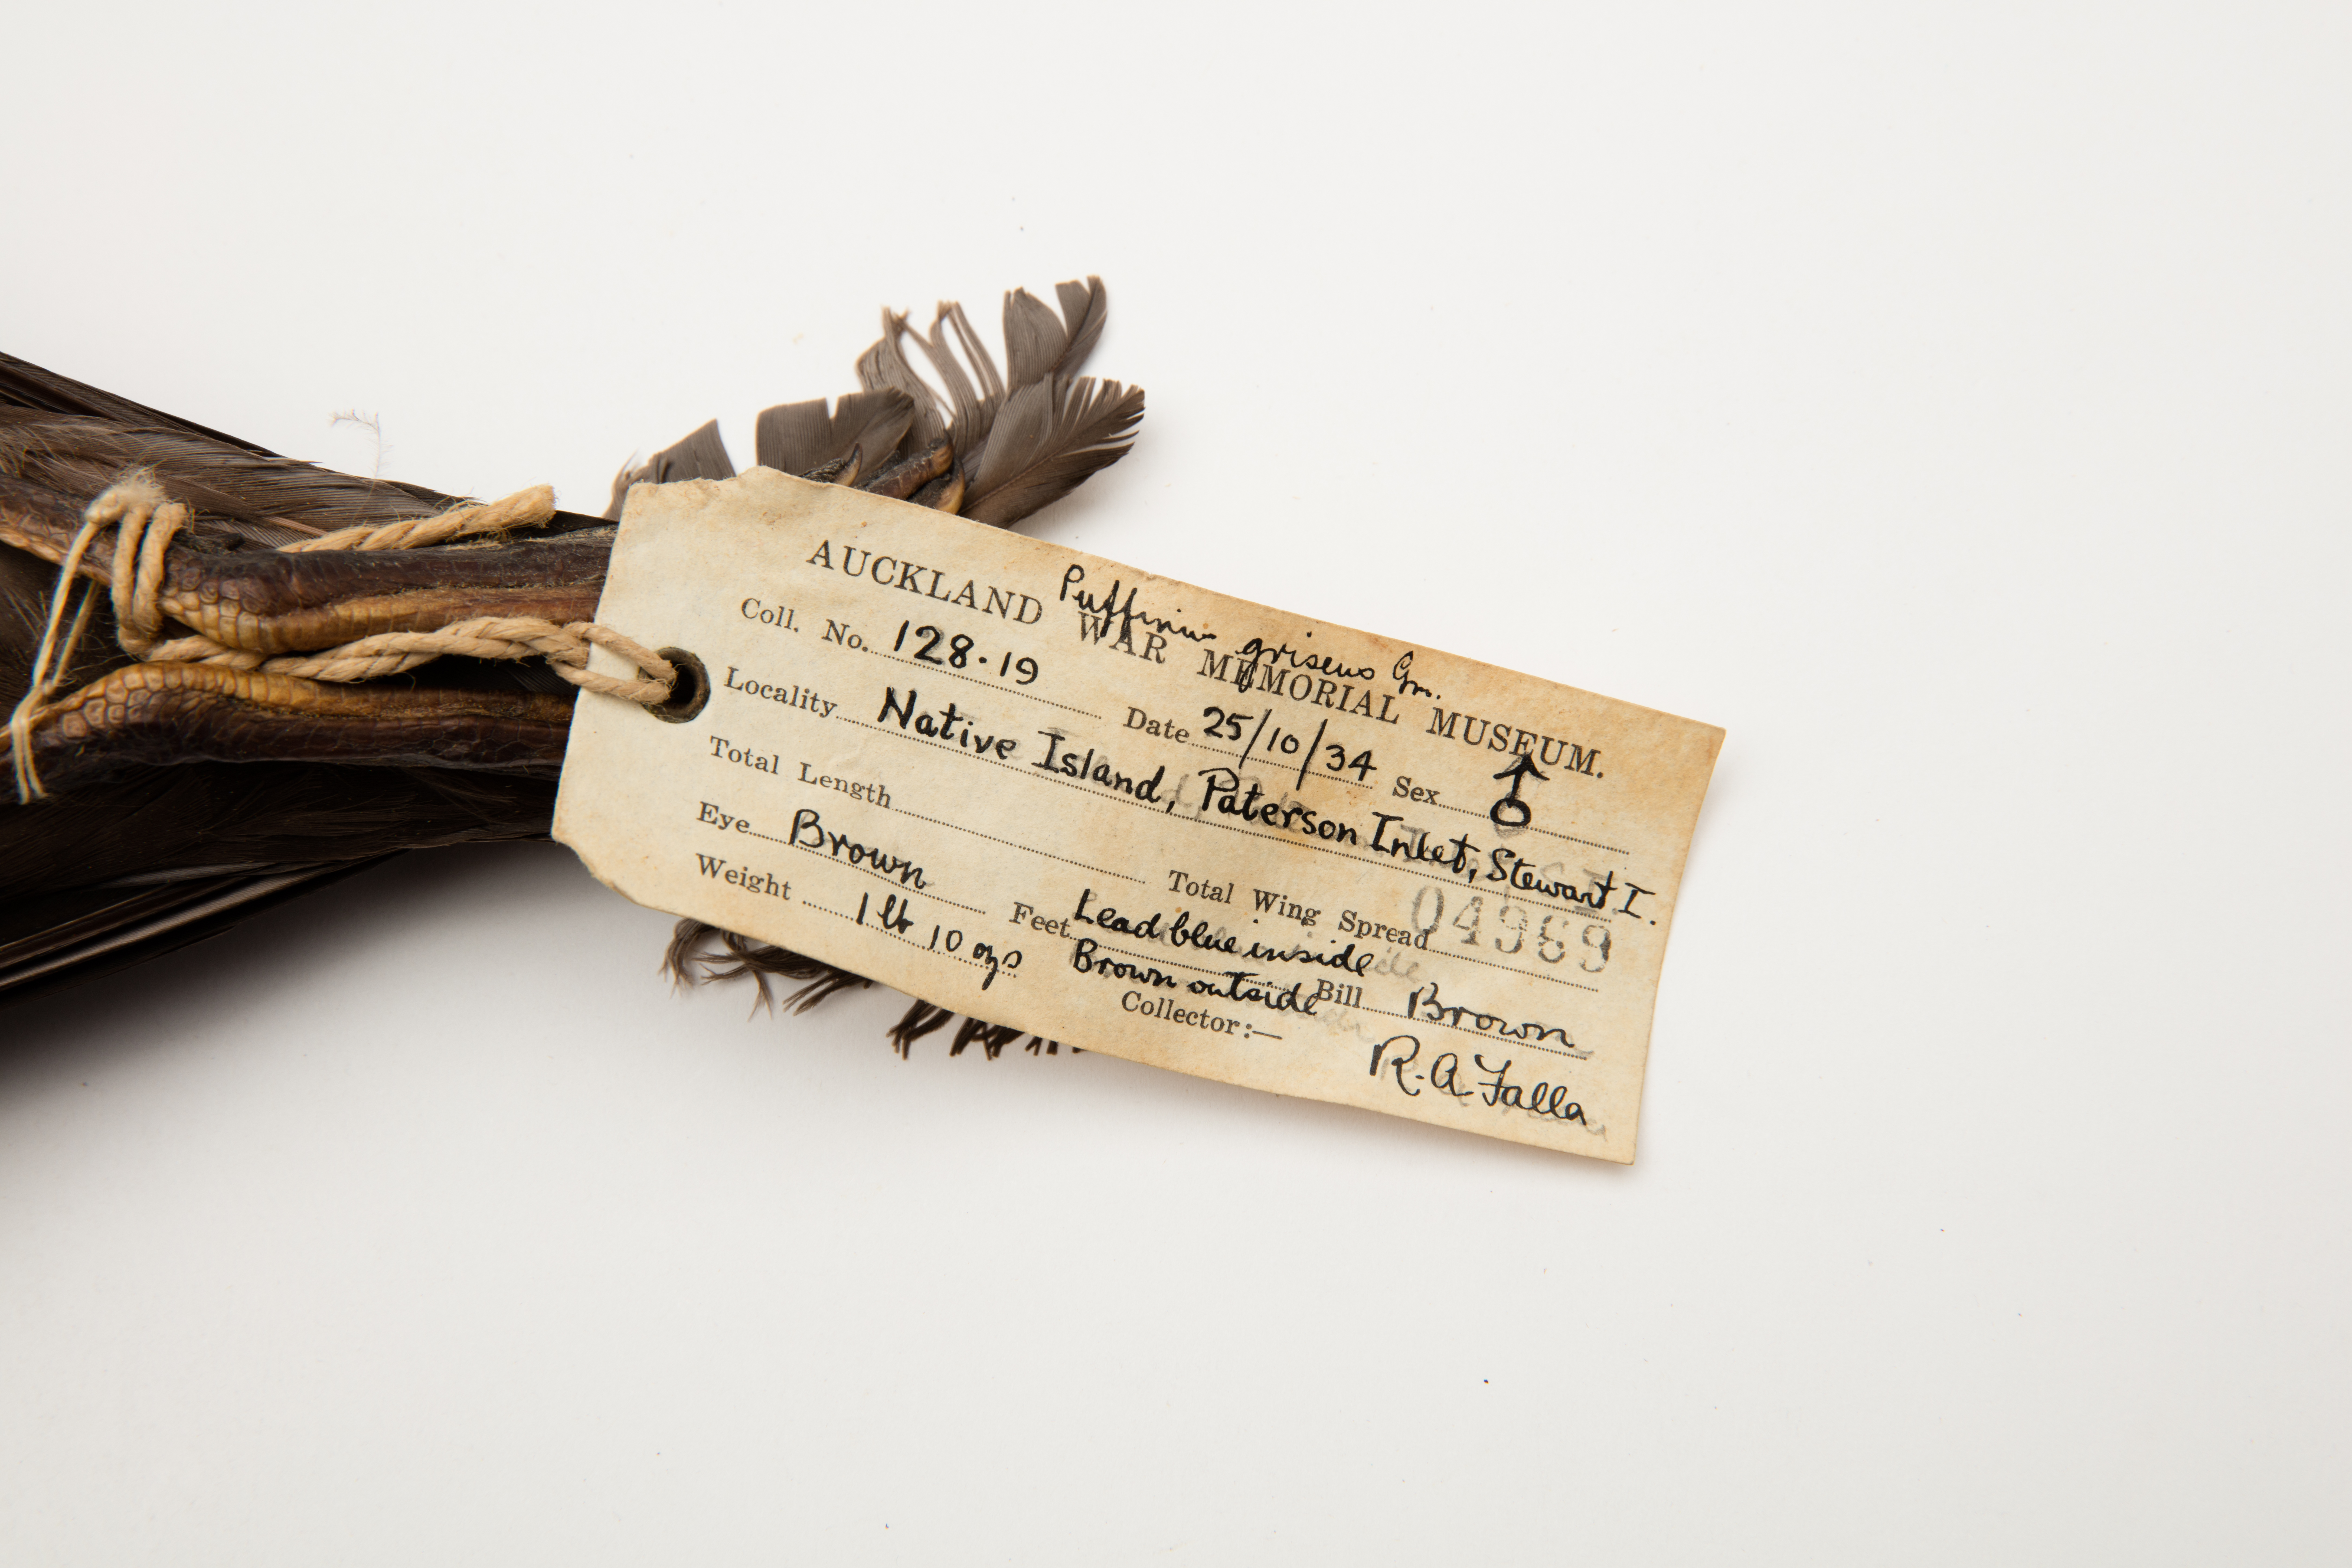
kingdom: Animalia
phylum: Chordata
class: Aves
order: Procellariiformes
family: Procellariidae
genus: Puffinus
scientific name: Puffinus griseus
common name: Sooty shearwater
